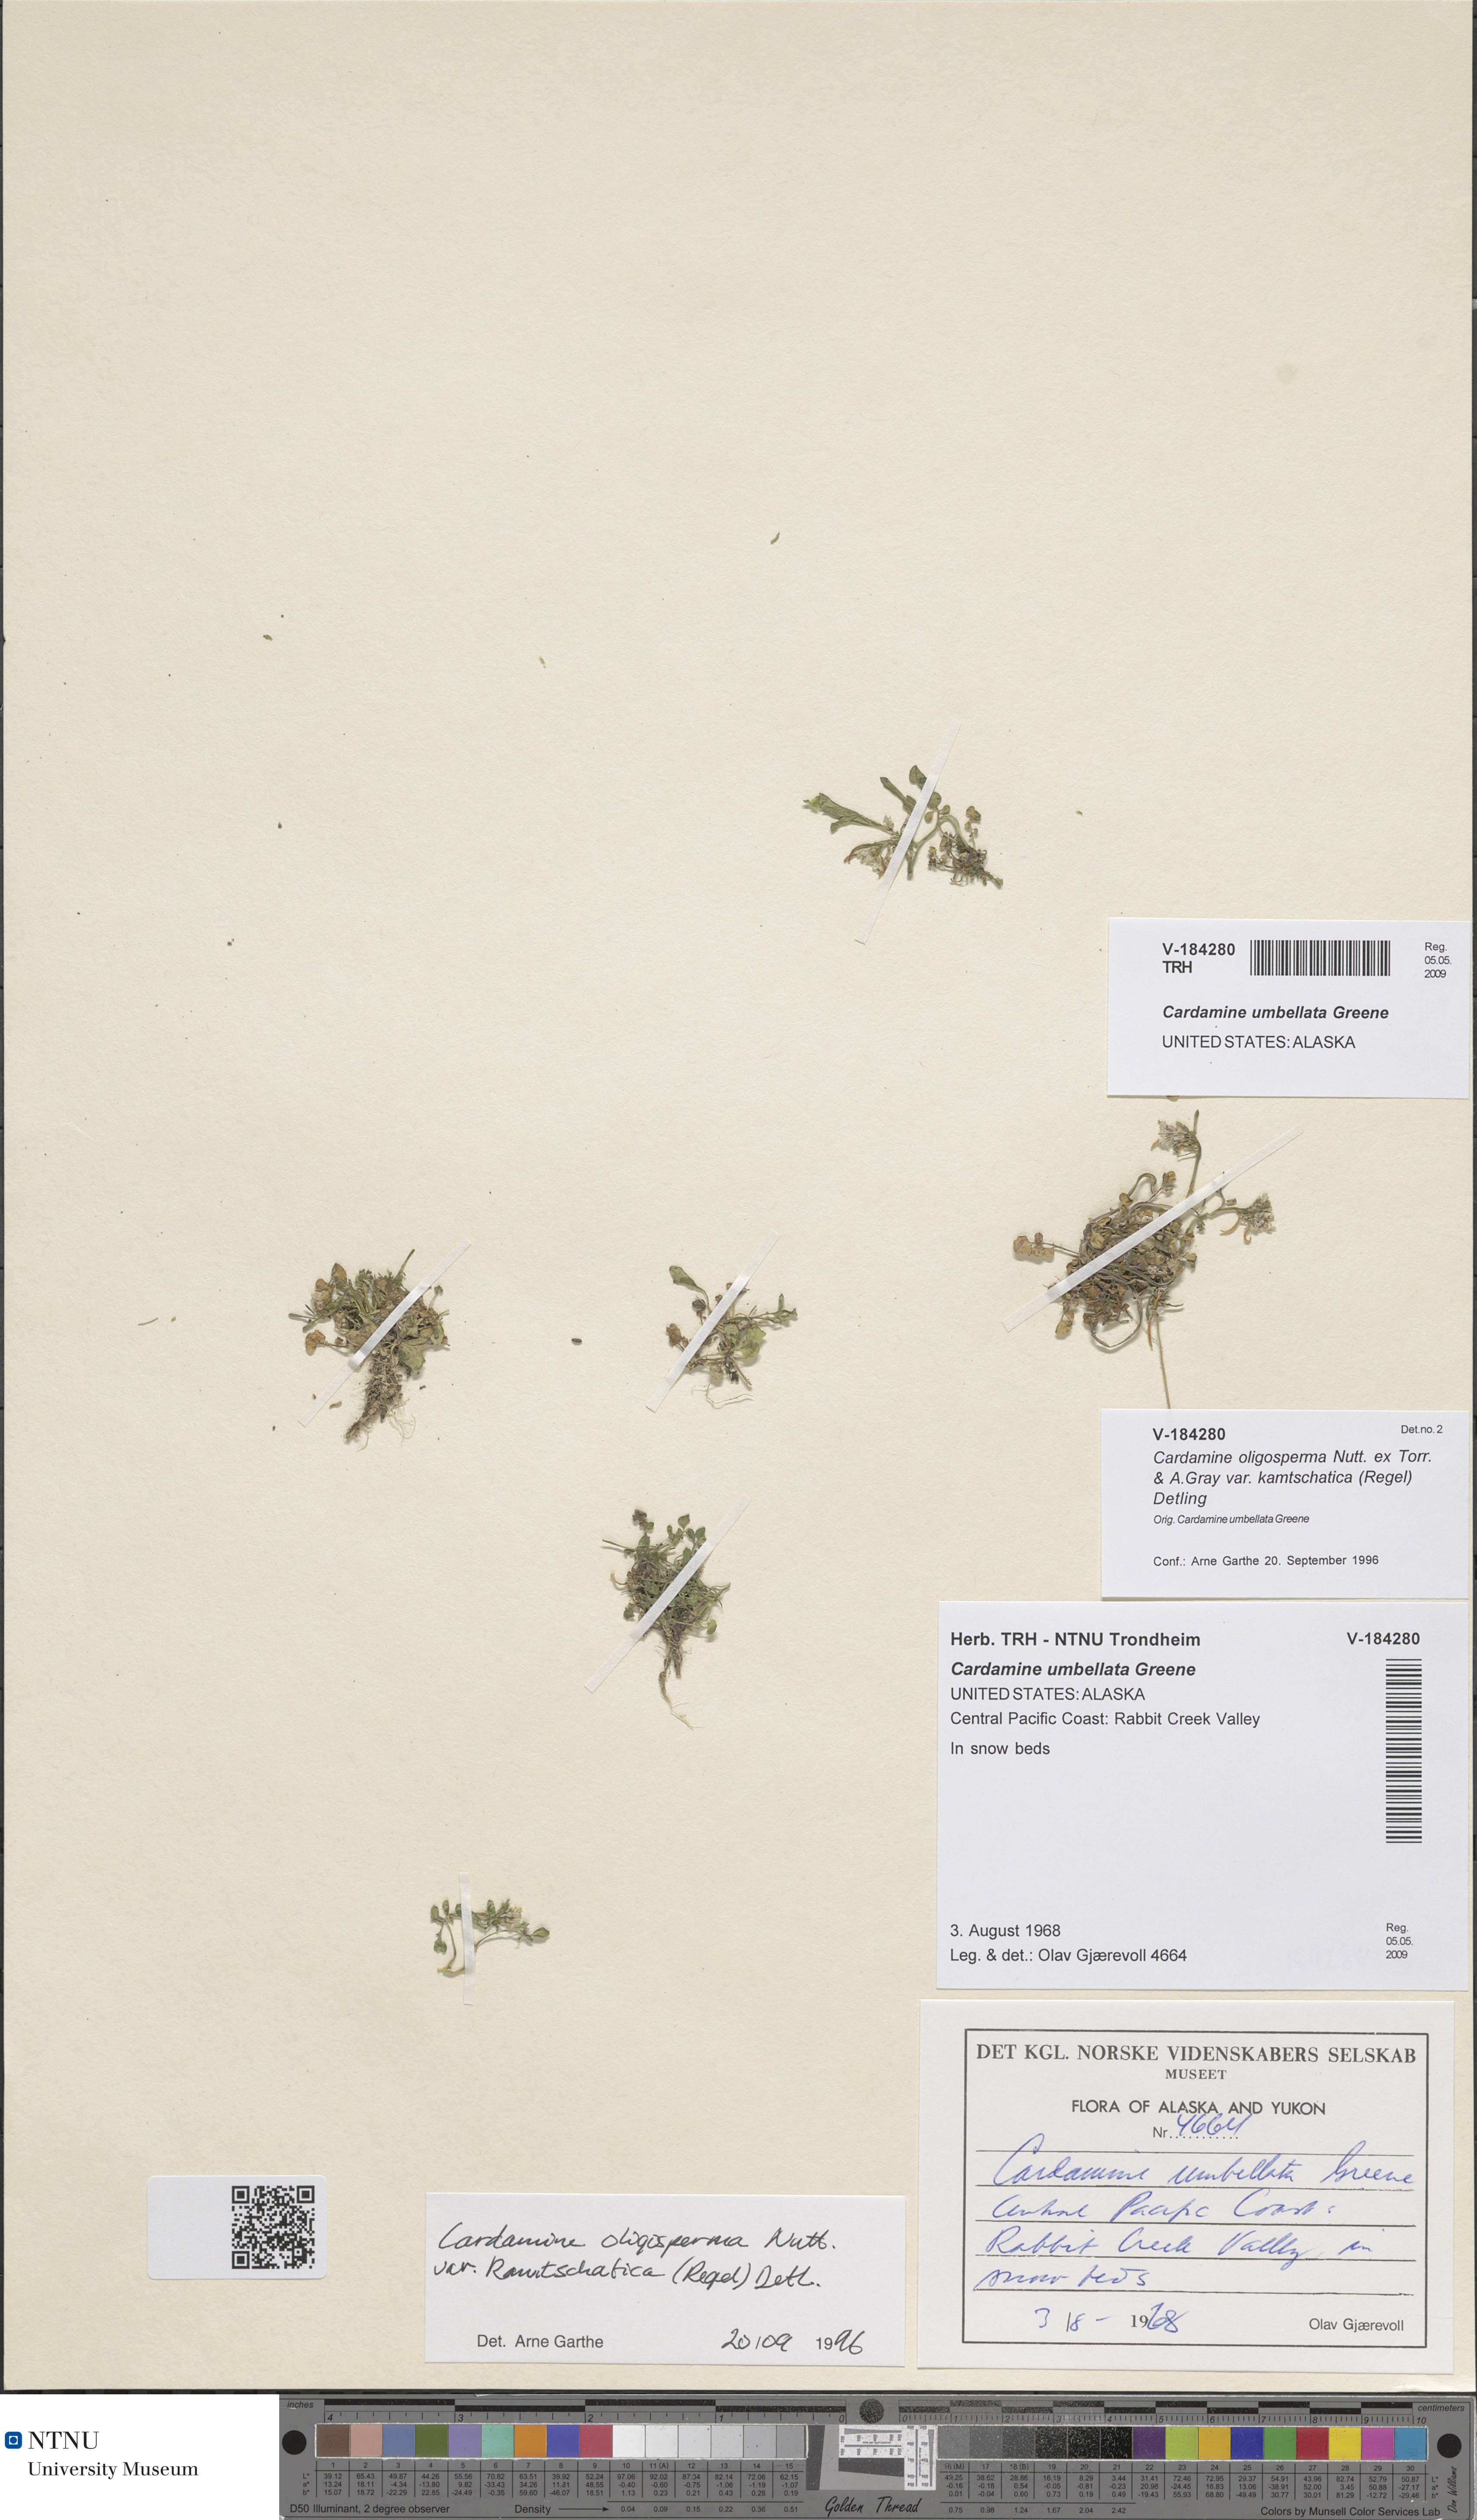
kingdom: Plantae
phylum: Tracheophyta
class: Magnoliopsida
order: Brassicales
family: Brassicaceae
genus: Cardamine
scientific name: Cardamine umbellata
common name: Siberian bittercress
